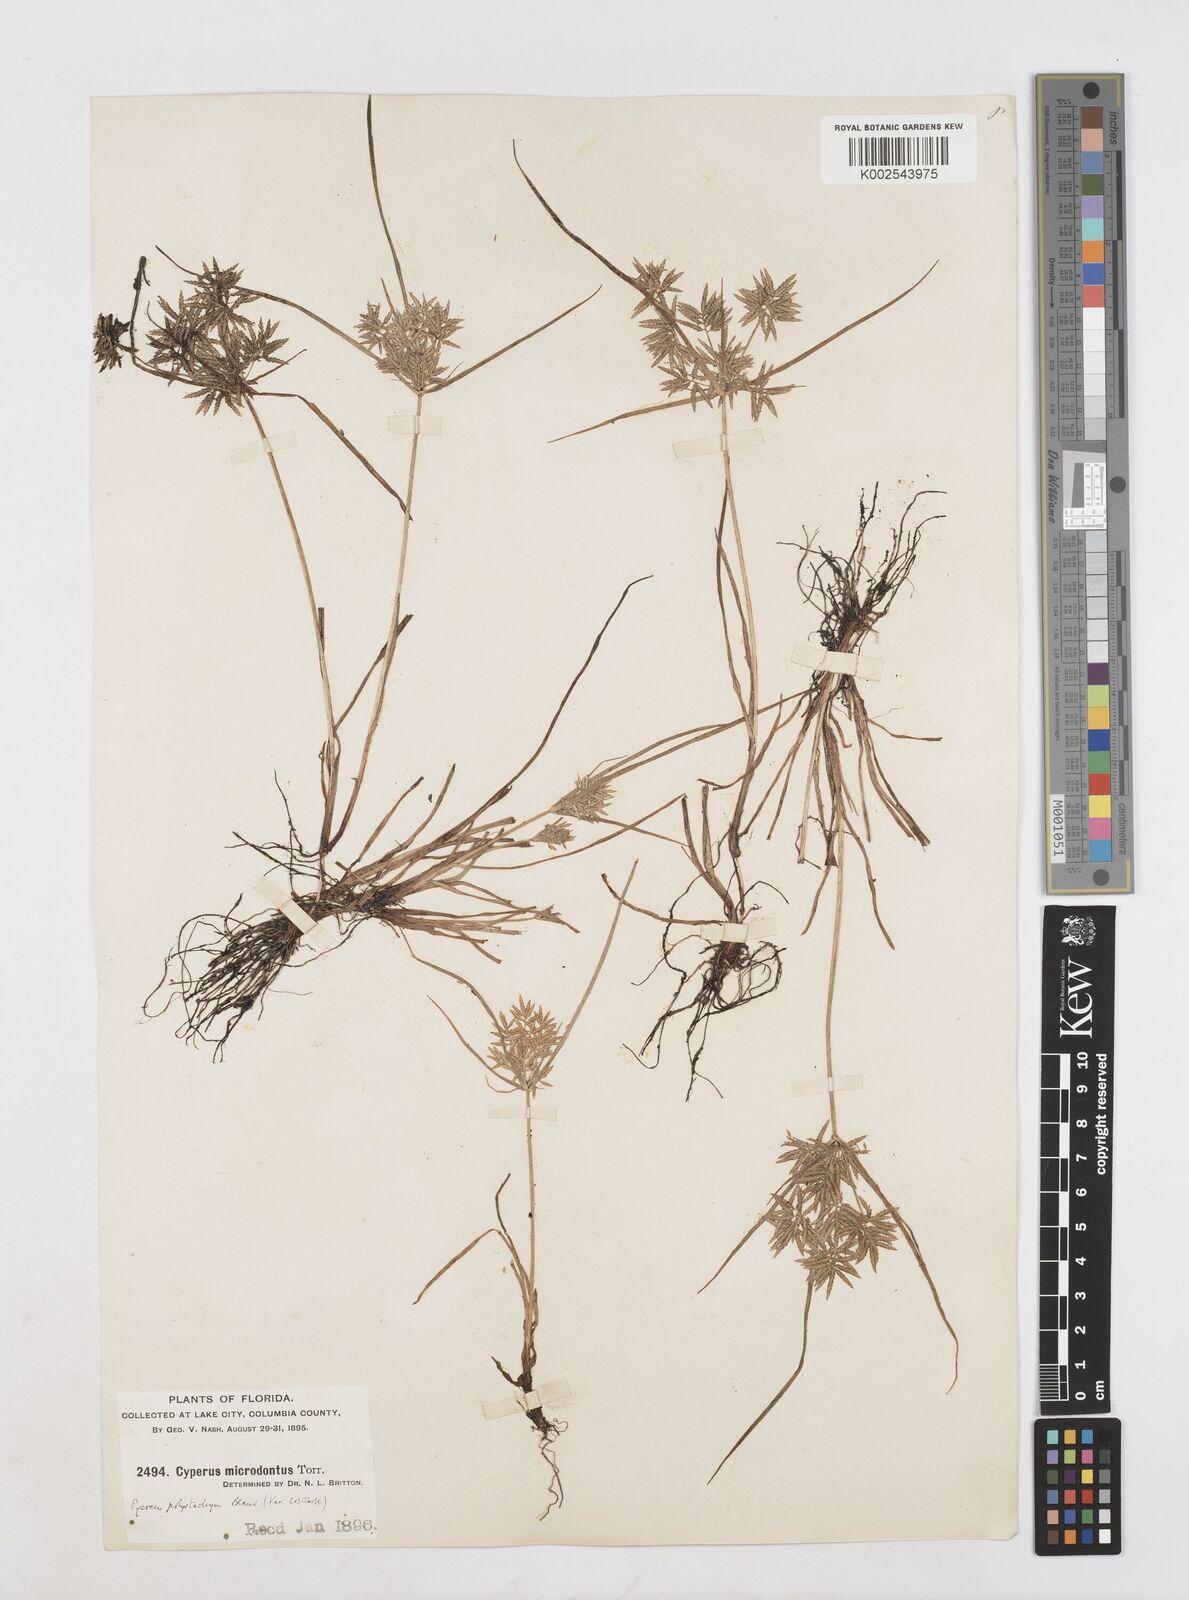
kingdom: Plantae
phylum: Tracheophyta
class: Liliopsida
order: Poales
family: Cyperaceae
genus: Cyperus
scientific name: Cyperus polystachyos
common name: Bunchy flat sedge
